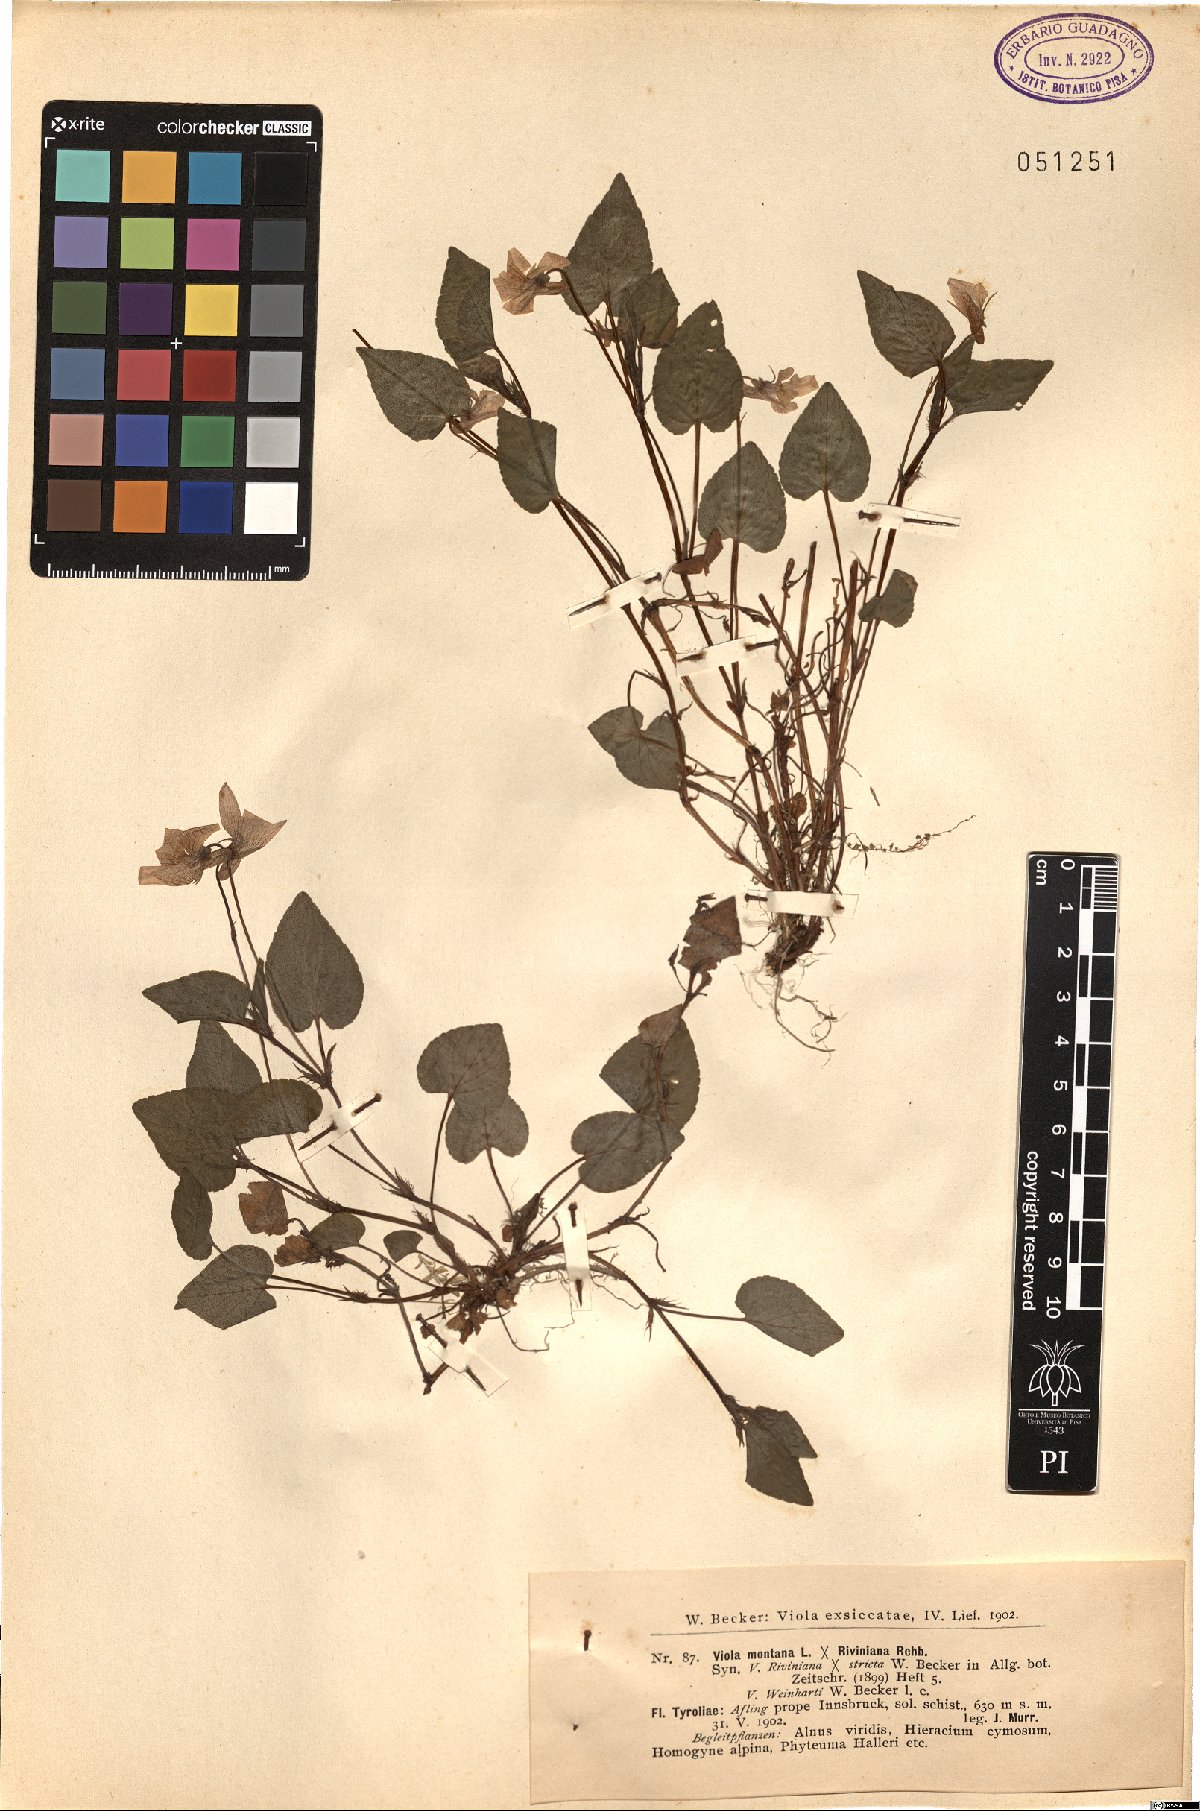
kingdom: Plantae
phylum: Tracheophyta
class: Magnoliopsida
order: Malpighiales
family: Violaceae
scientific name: Violaceae
